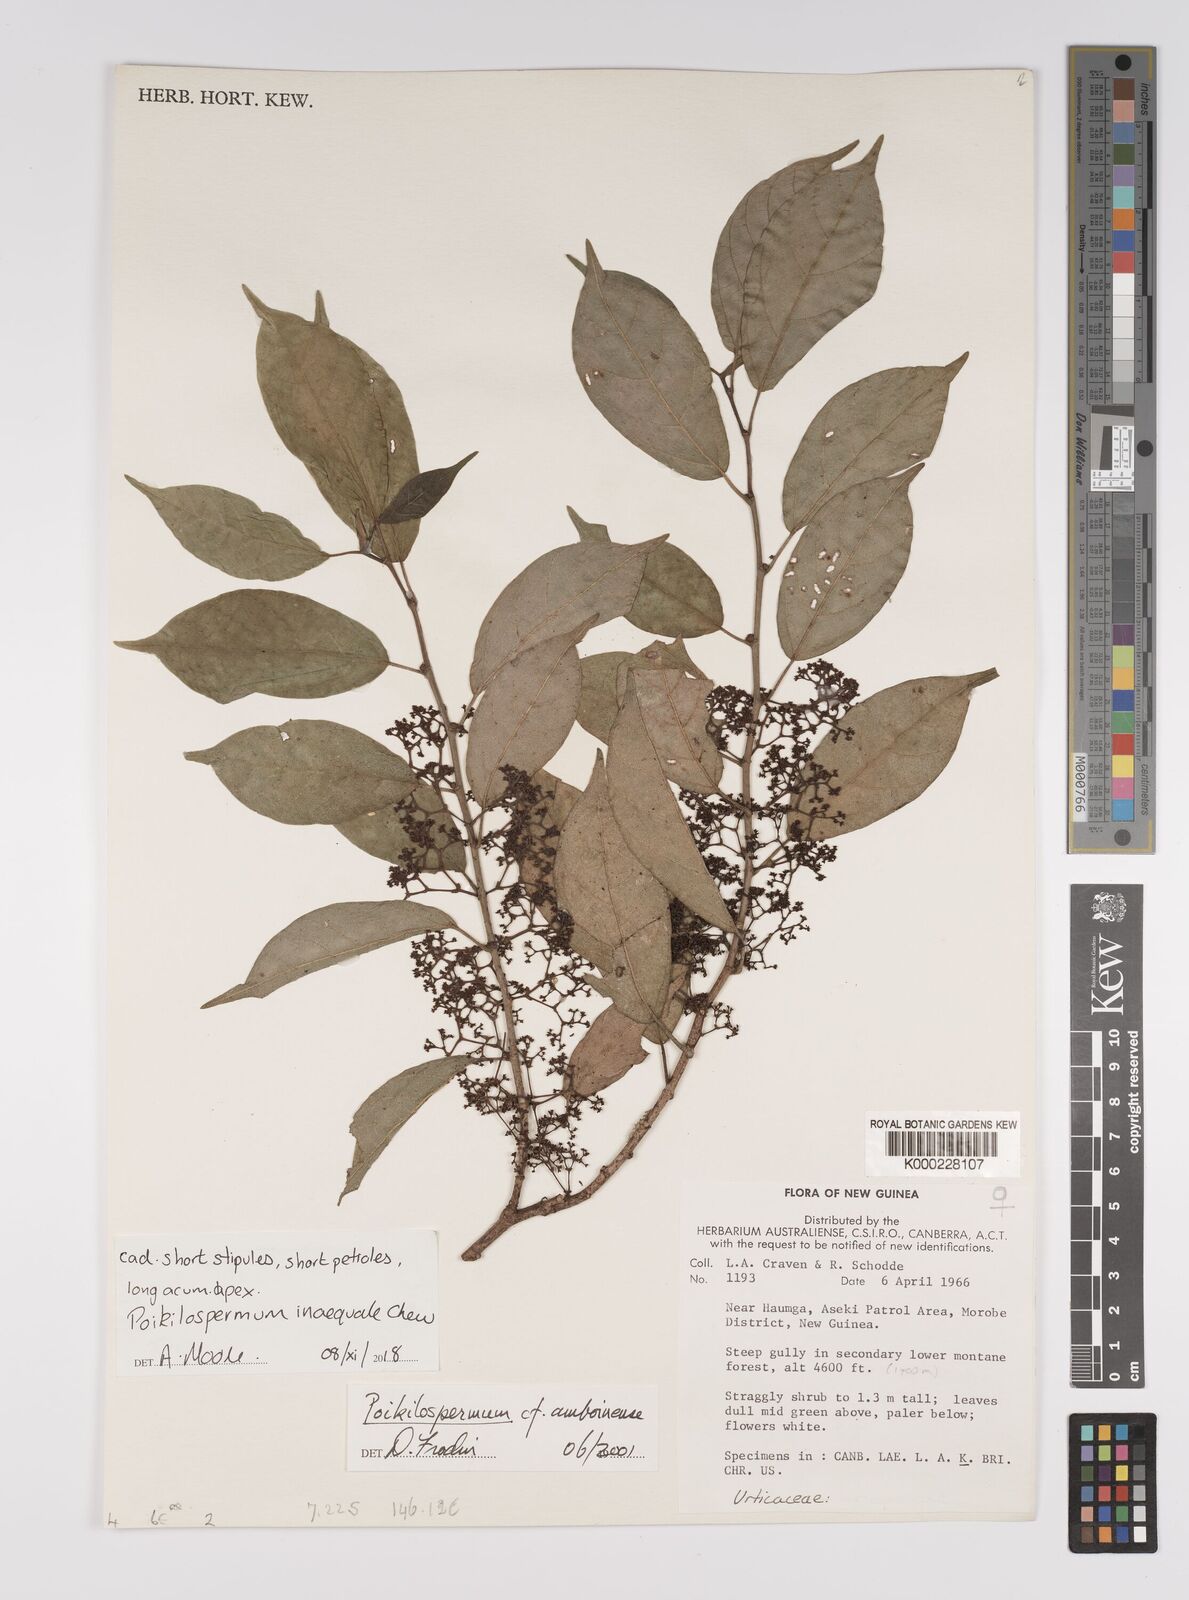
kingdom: Plantae
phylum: Tracheophyta
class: Magnoliopsida
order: Rosales
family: Urticaceae
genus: Poikilospermum
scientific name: Poikilospermum inaequale
